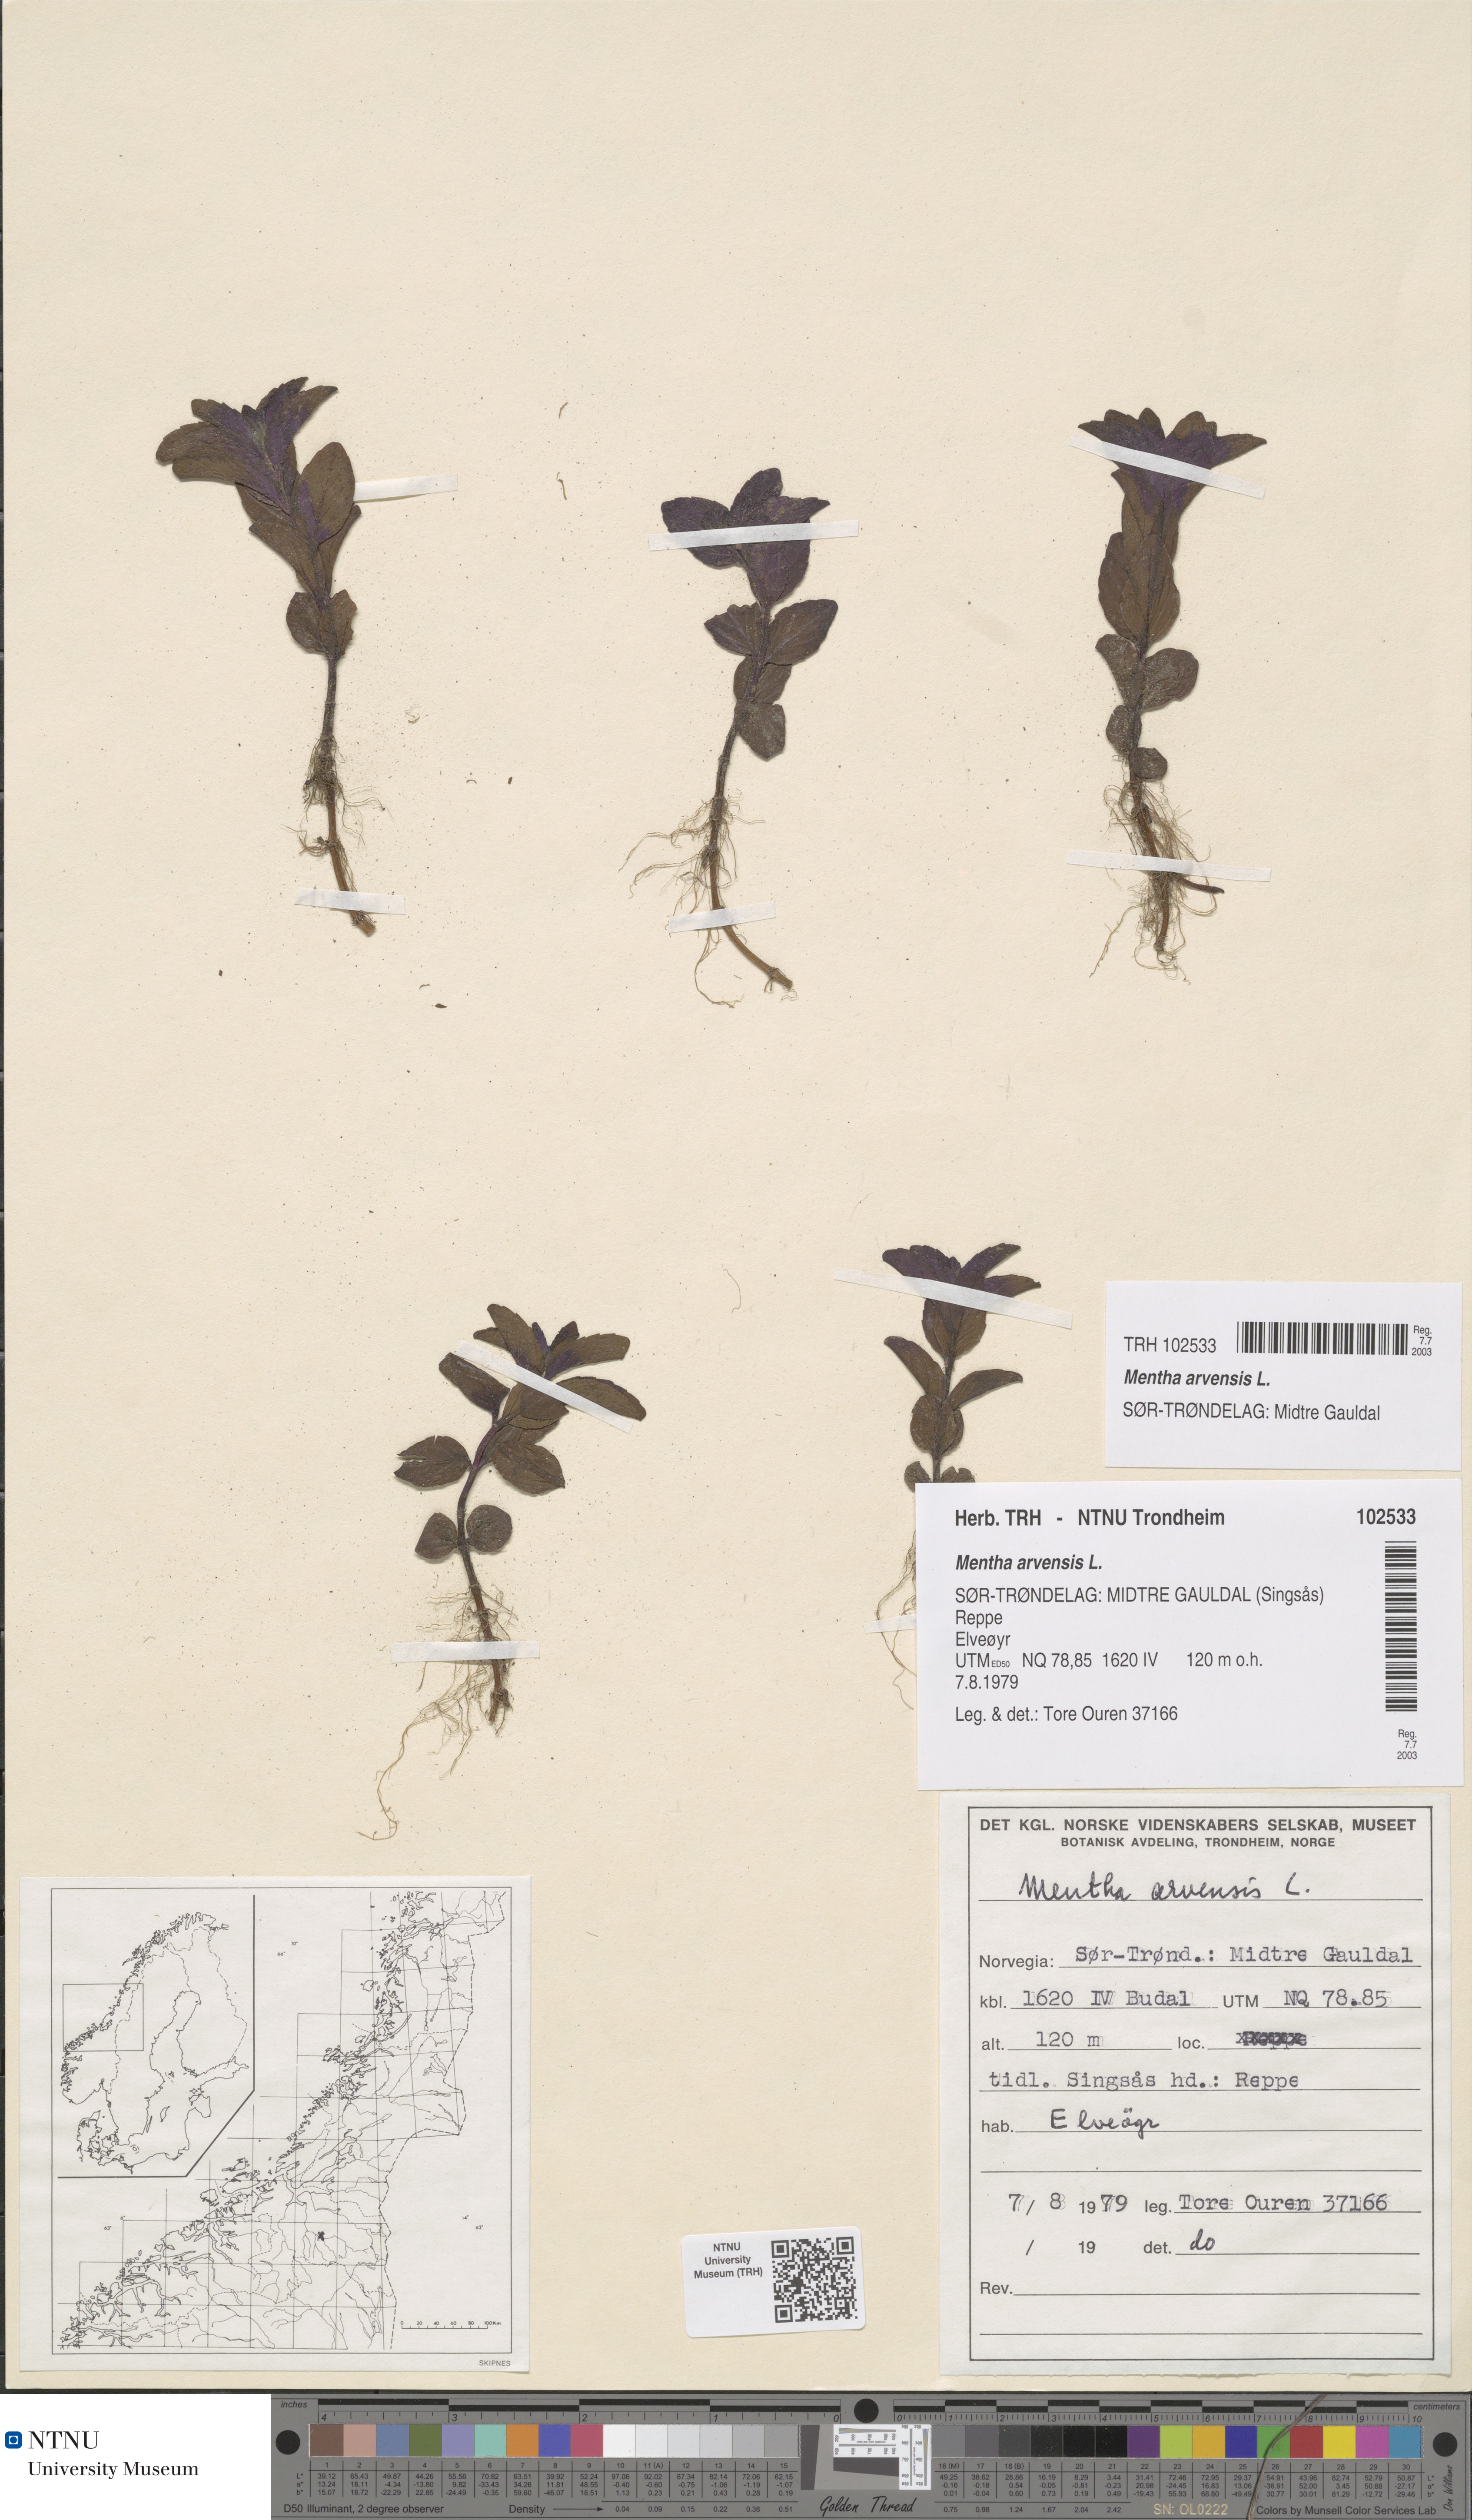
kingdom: Plantae
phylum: Tracheophyta
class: Magnoliopsida
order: Lamiales
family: Lamiaceae
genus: Mentha
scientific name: Mentha arvensis
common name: Corn mint
